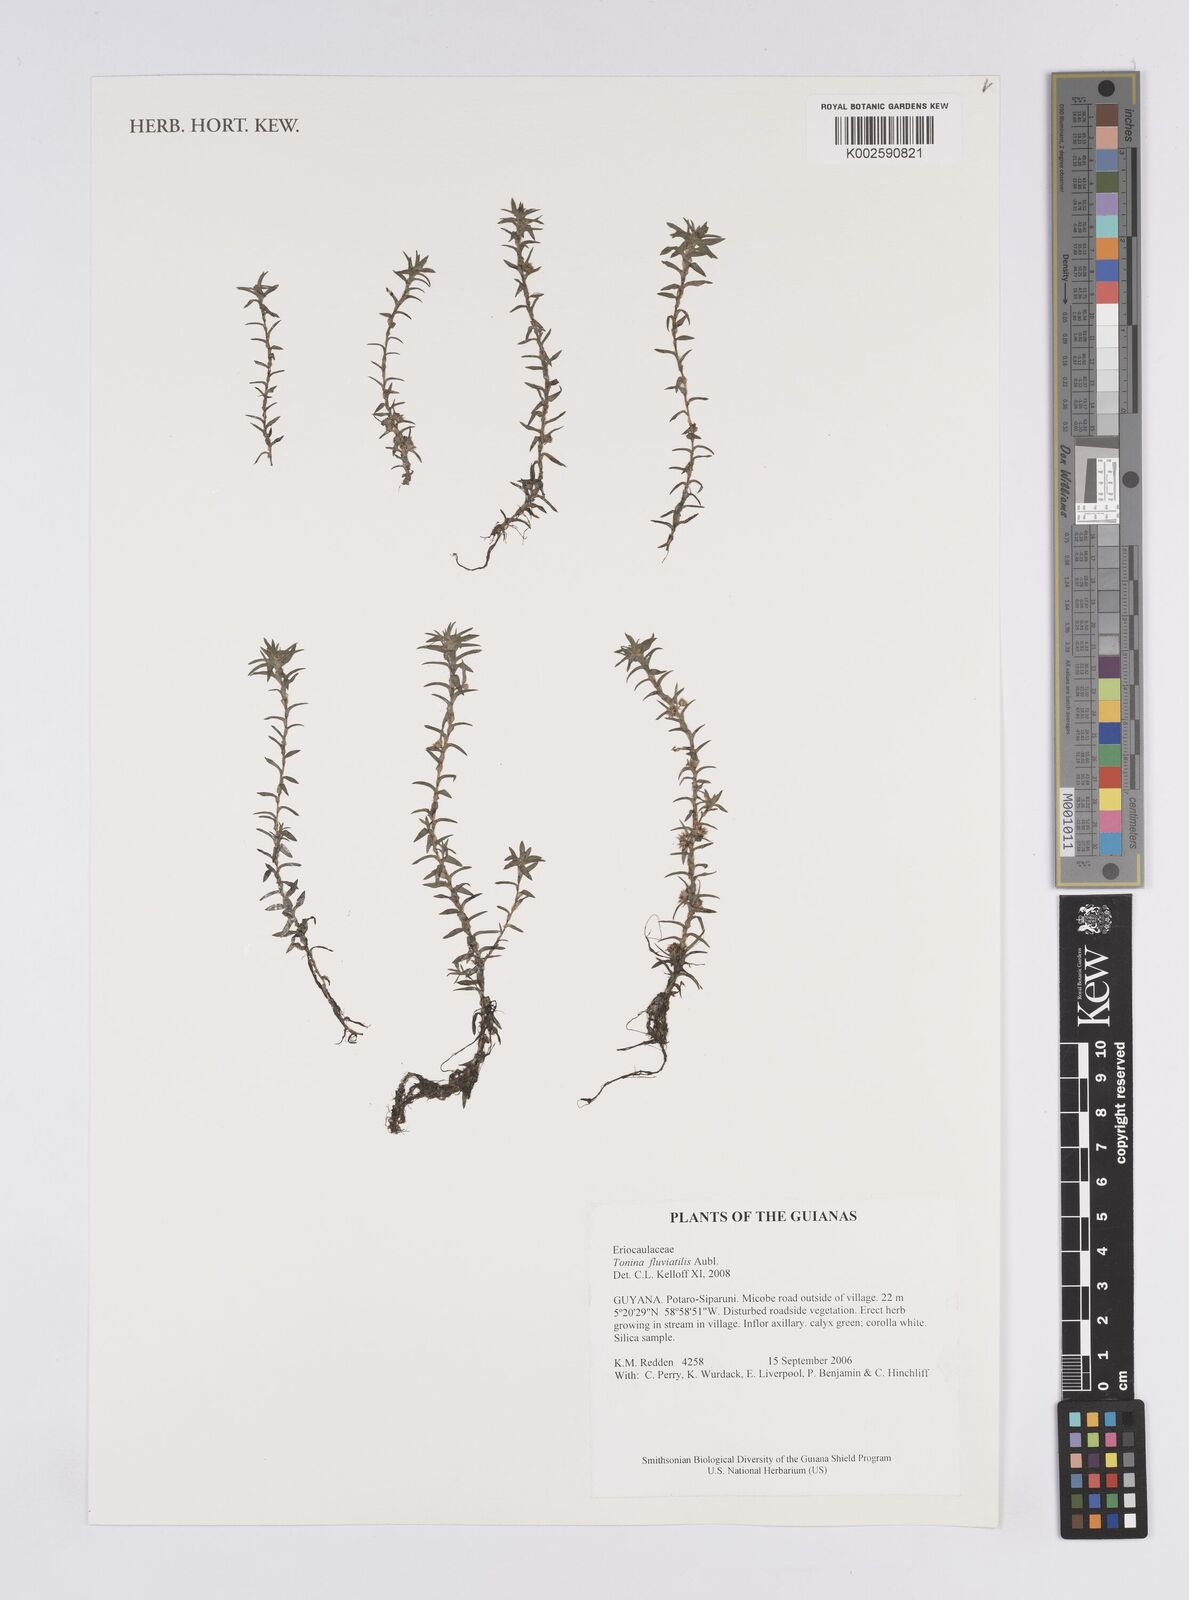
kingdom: Plantae
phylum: Tracheophyta
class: Liliopsida
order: Poales
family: Eriocaulaceae
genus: Paepalanthus
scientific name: Paepalanthus fluviatilis
